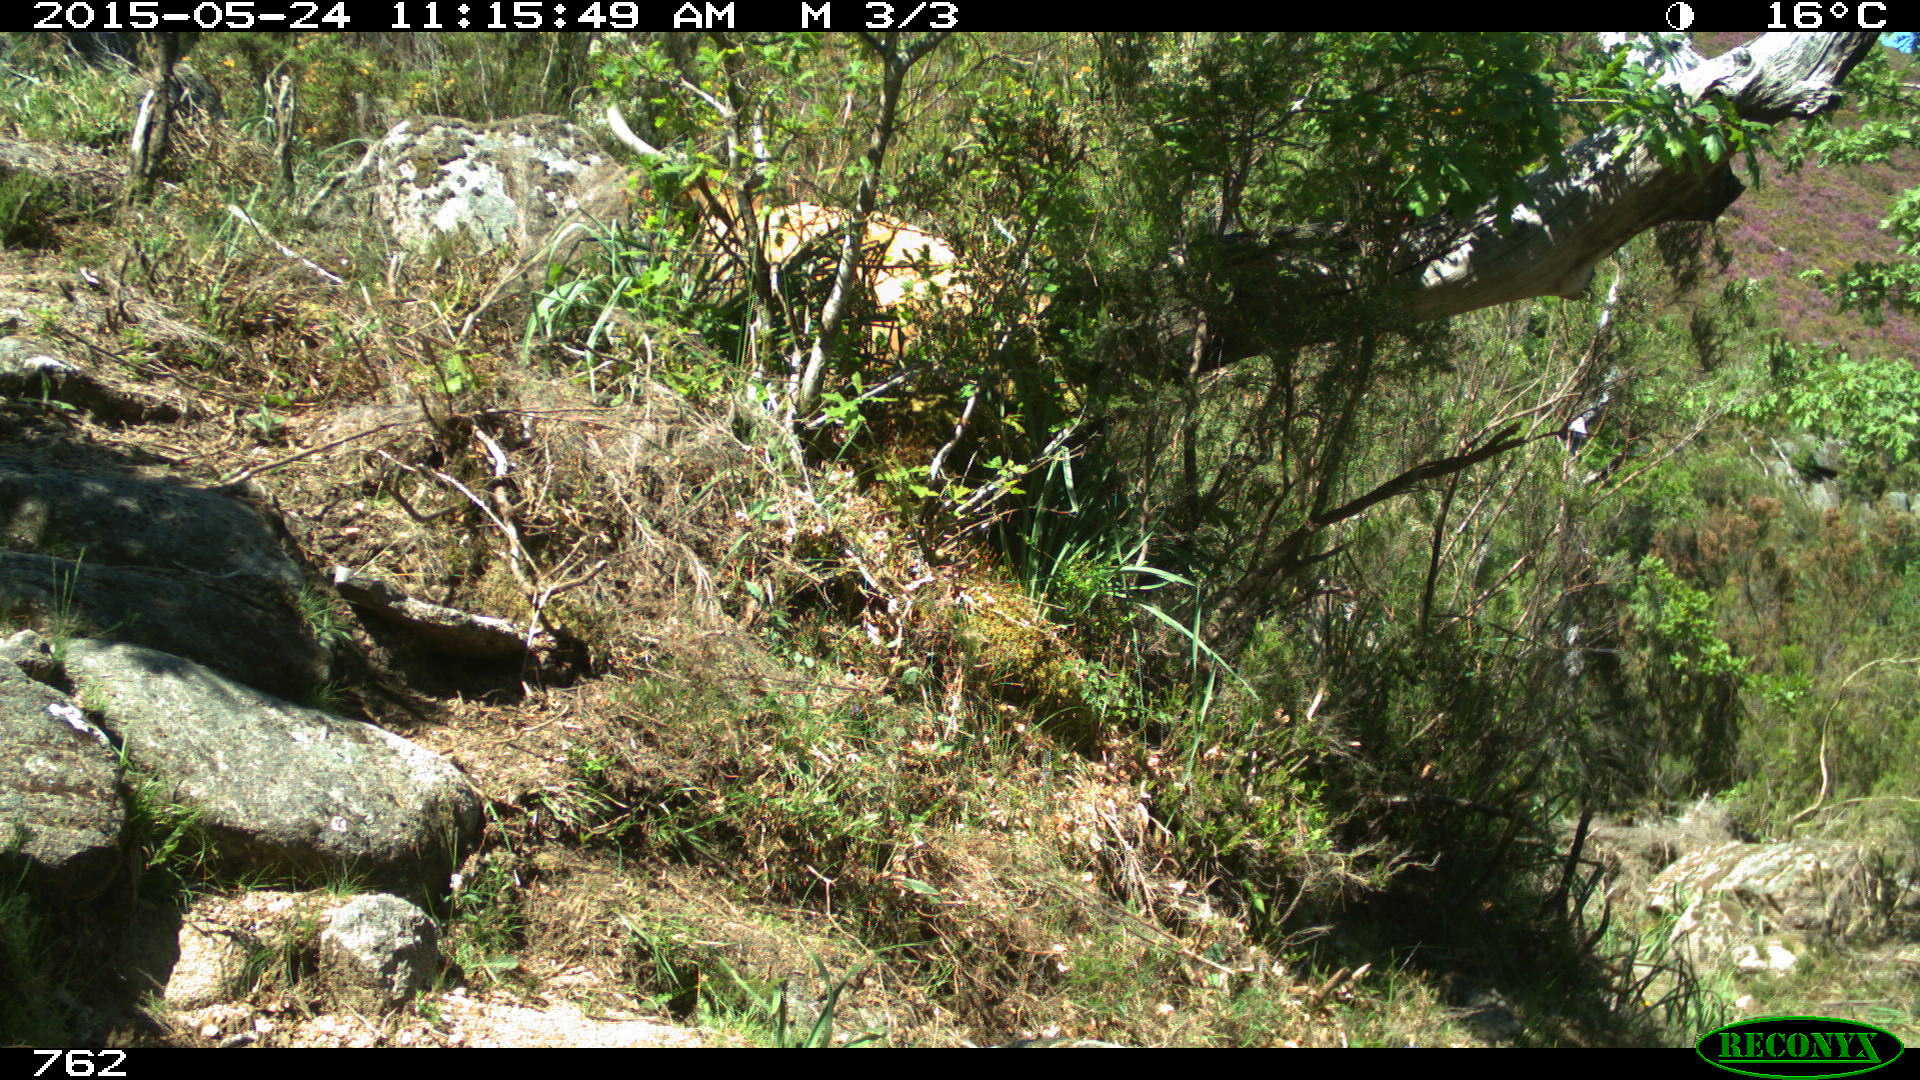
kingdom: Animalia
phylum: Chordata
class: Mammalia
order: Artiodactyla
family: Bovidae
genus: Bos
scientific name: Bos taurus
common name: Domesticated cattle
